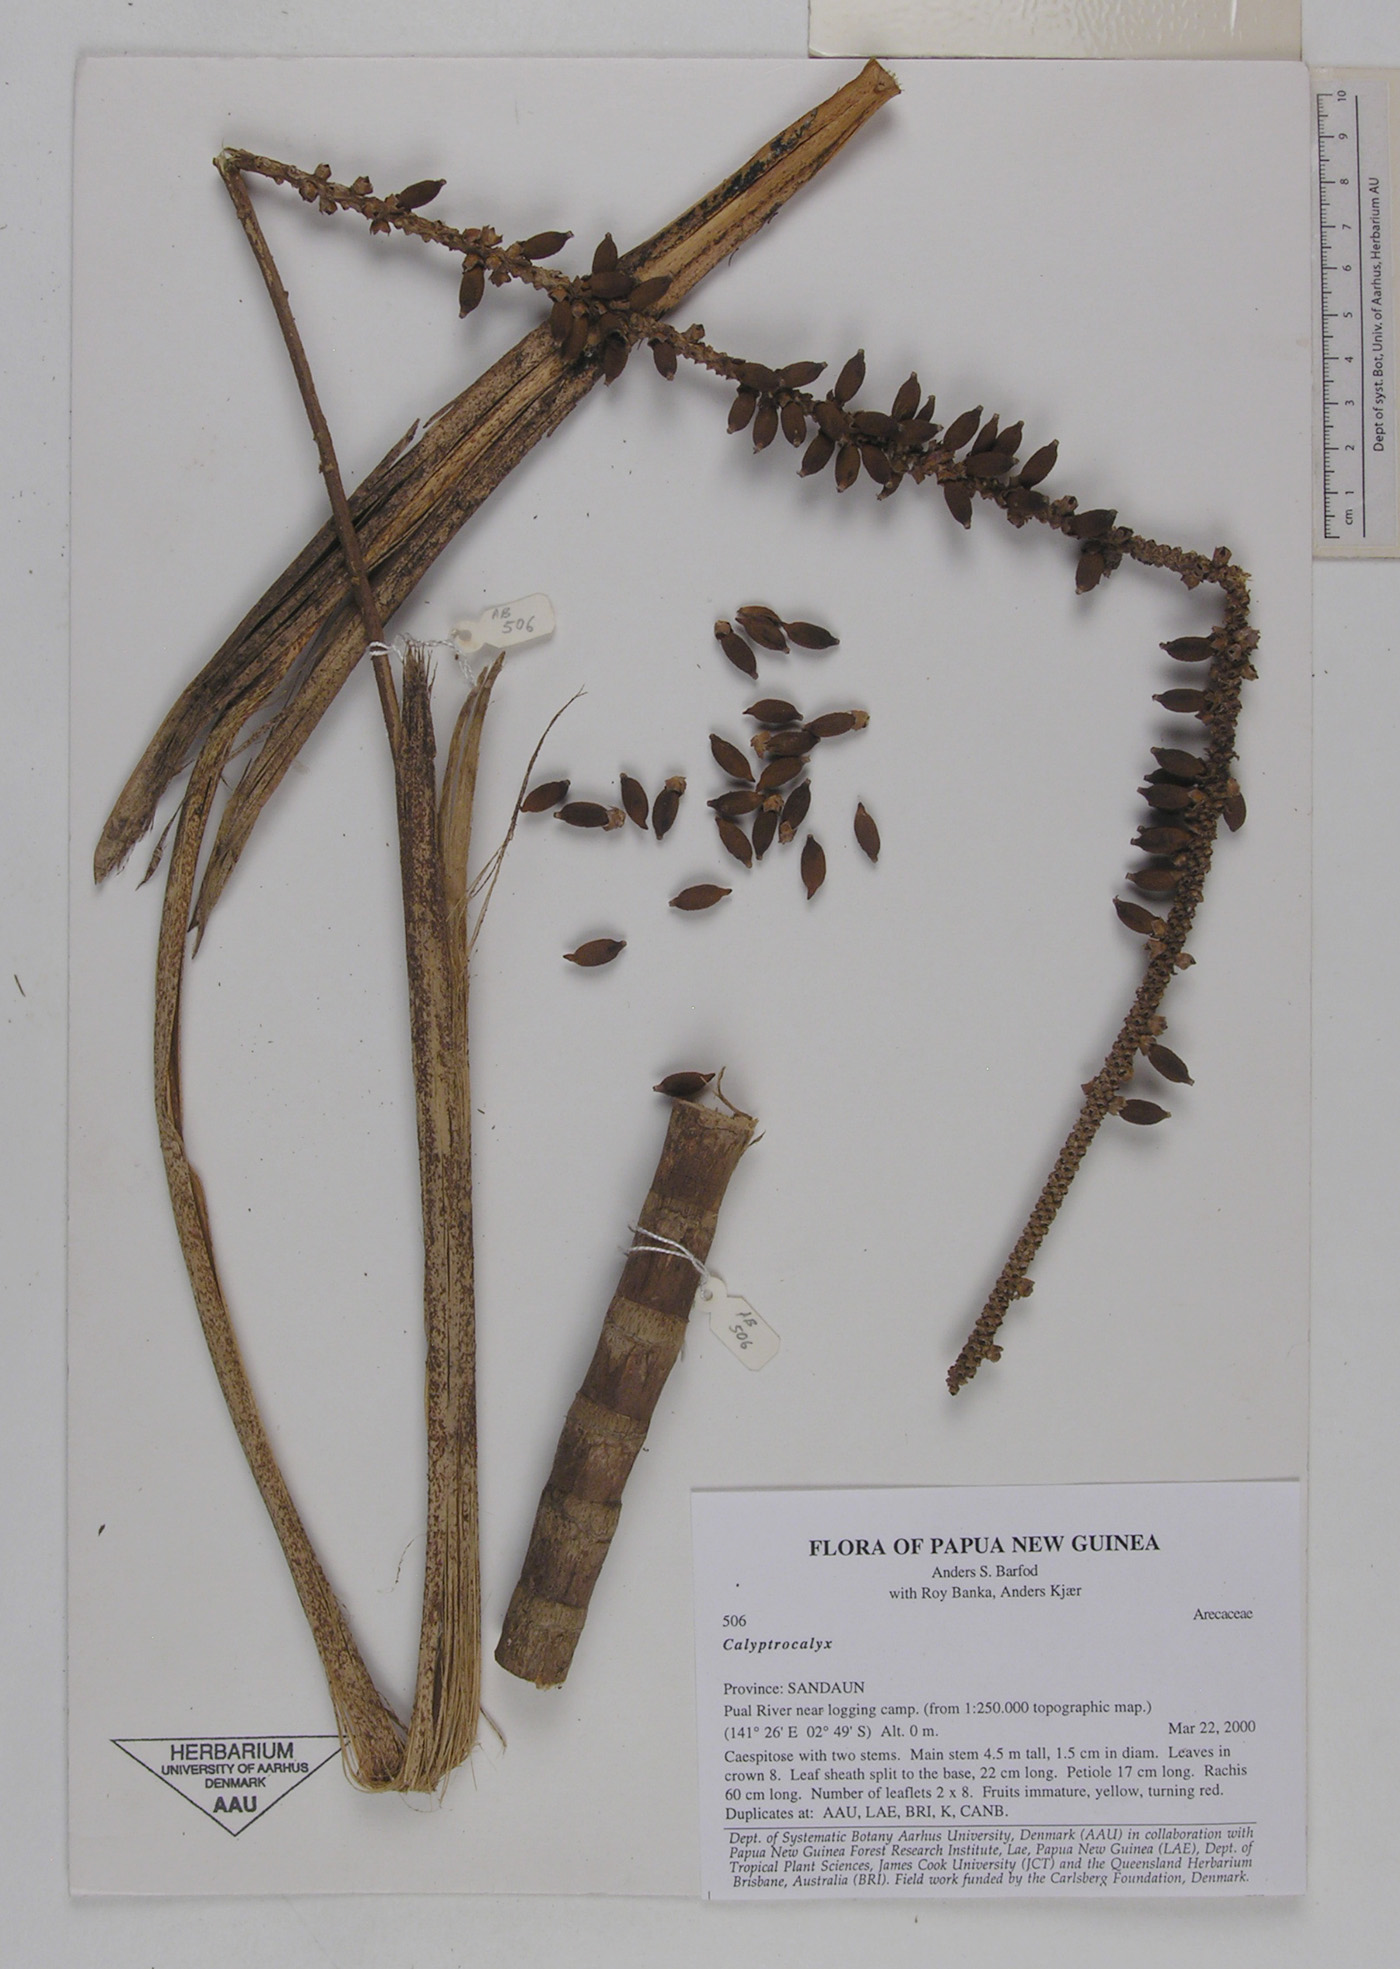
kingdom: Plantae
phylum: Tracheophyta
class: Liliopsida
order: Arecales
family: Arecaceae
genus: Calyptrocalyx
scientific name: Calyptrocalyx
